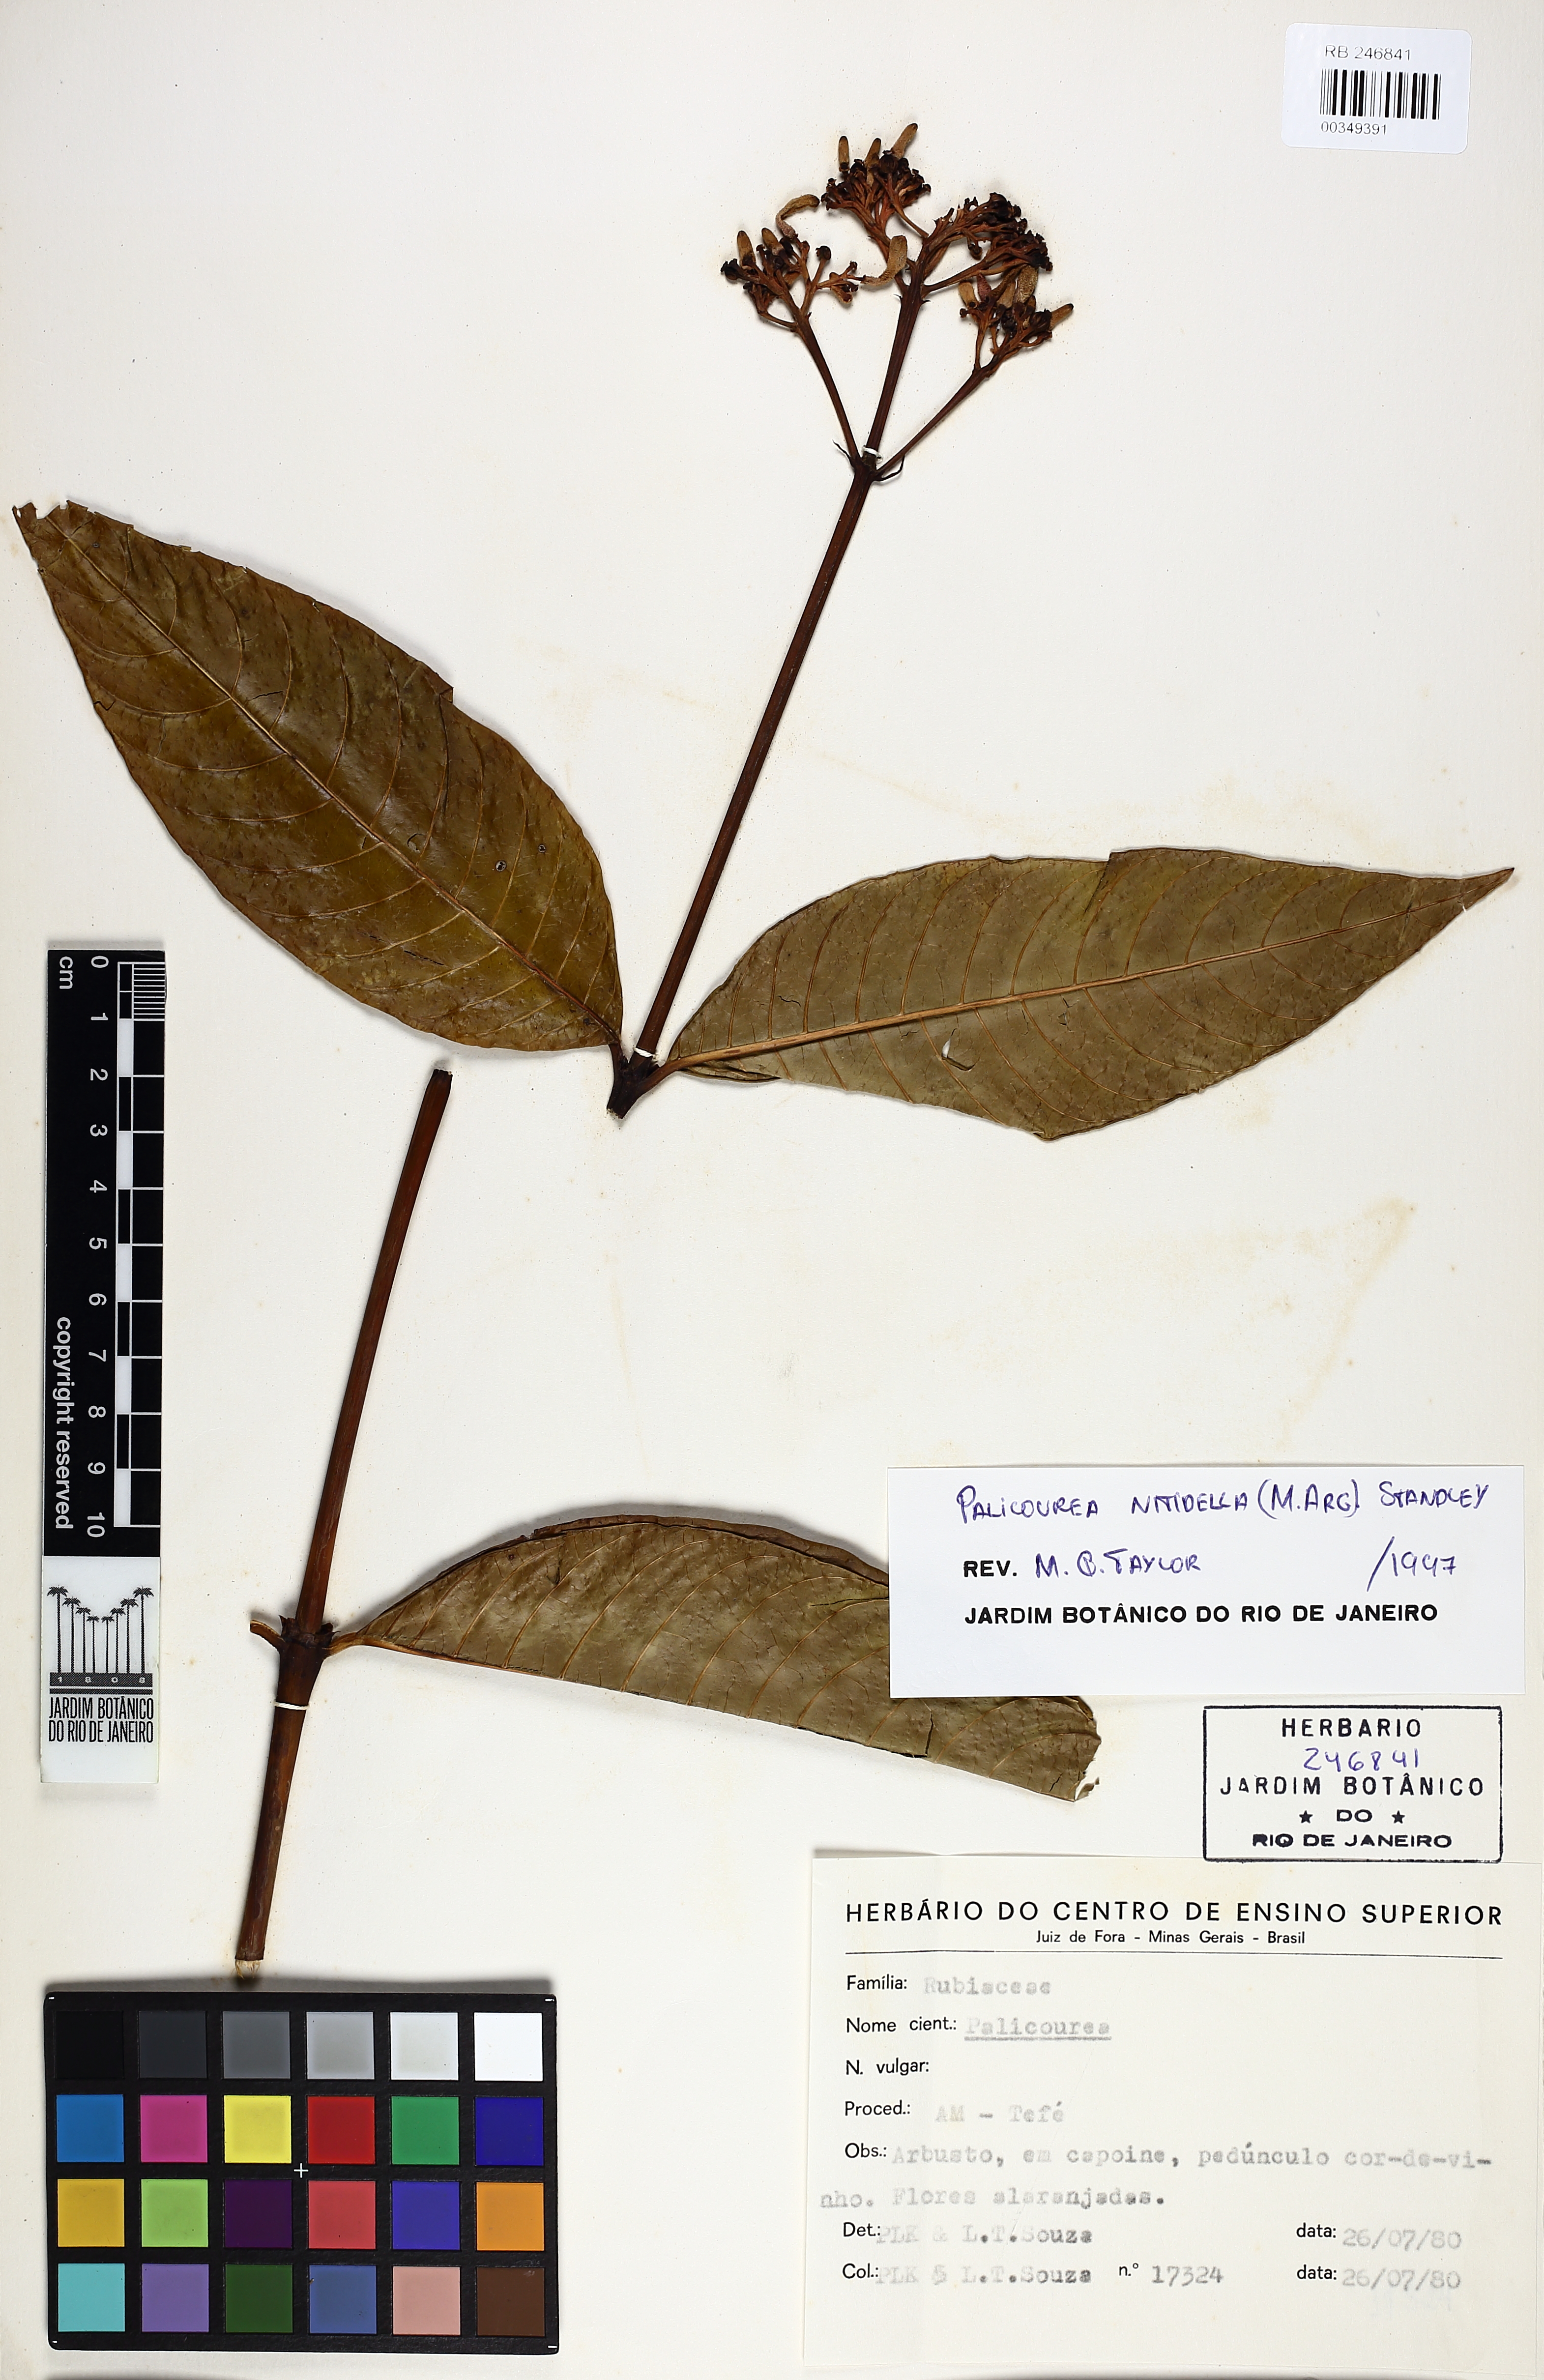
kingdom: Plantae
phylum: Tracheophyta
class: Magnoliopsida
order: Gentianales
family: Rubiaceae
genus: Palicourea
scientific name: Palicourea nitidella
